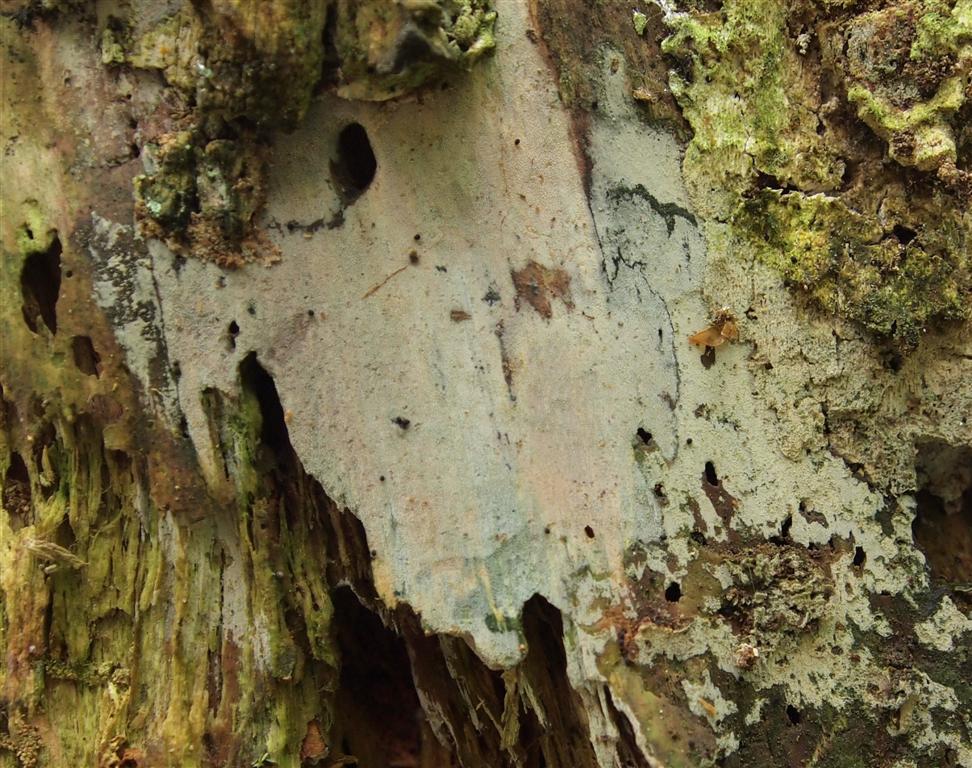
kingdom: Fungi
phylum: Basidiomycota
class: Agaricomycetes
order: Hymenochaetales
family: Rickenellaceae
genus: Resinicium
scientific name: Resinicium bicolor
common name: almindelig vokstand
